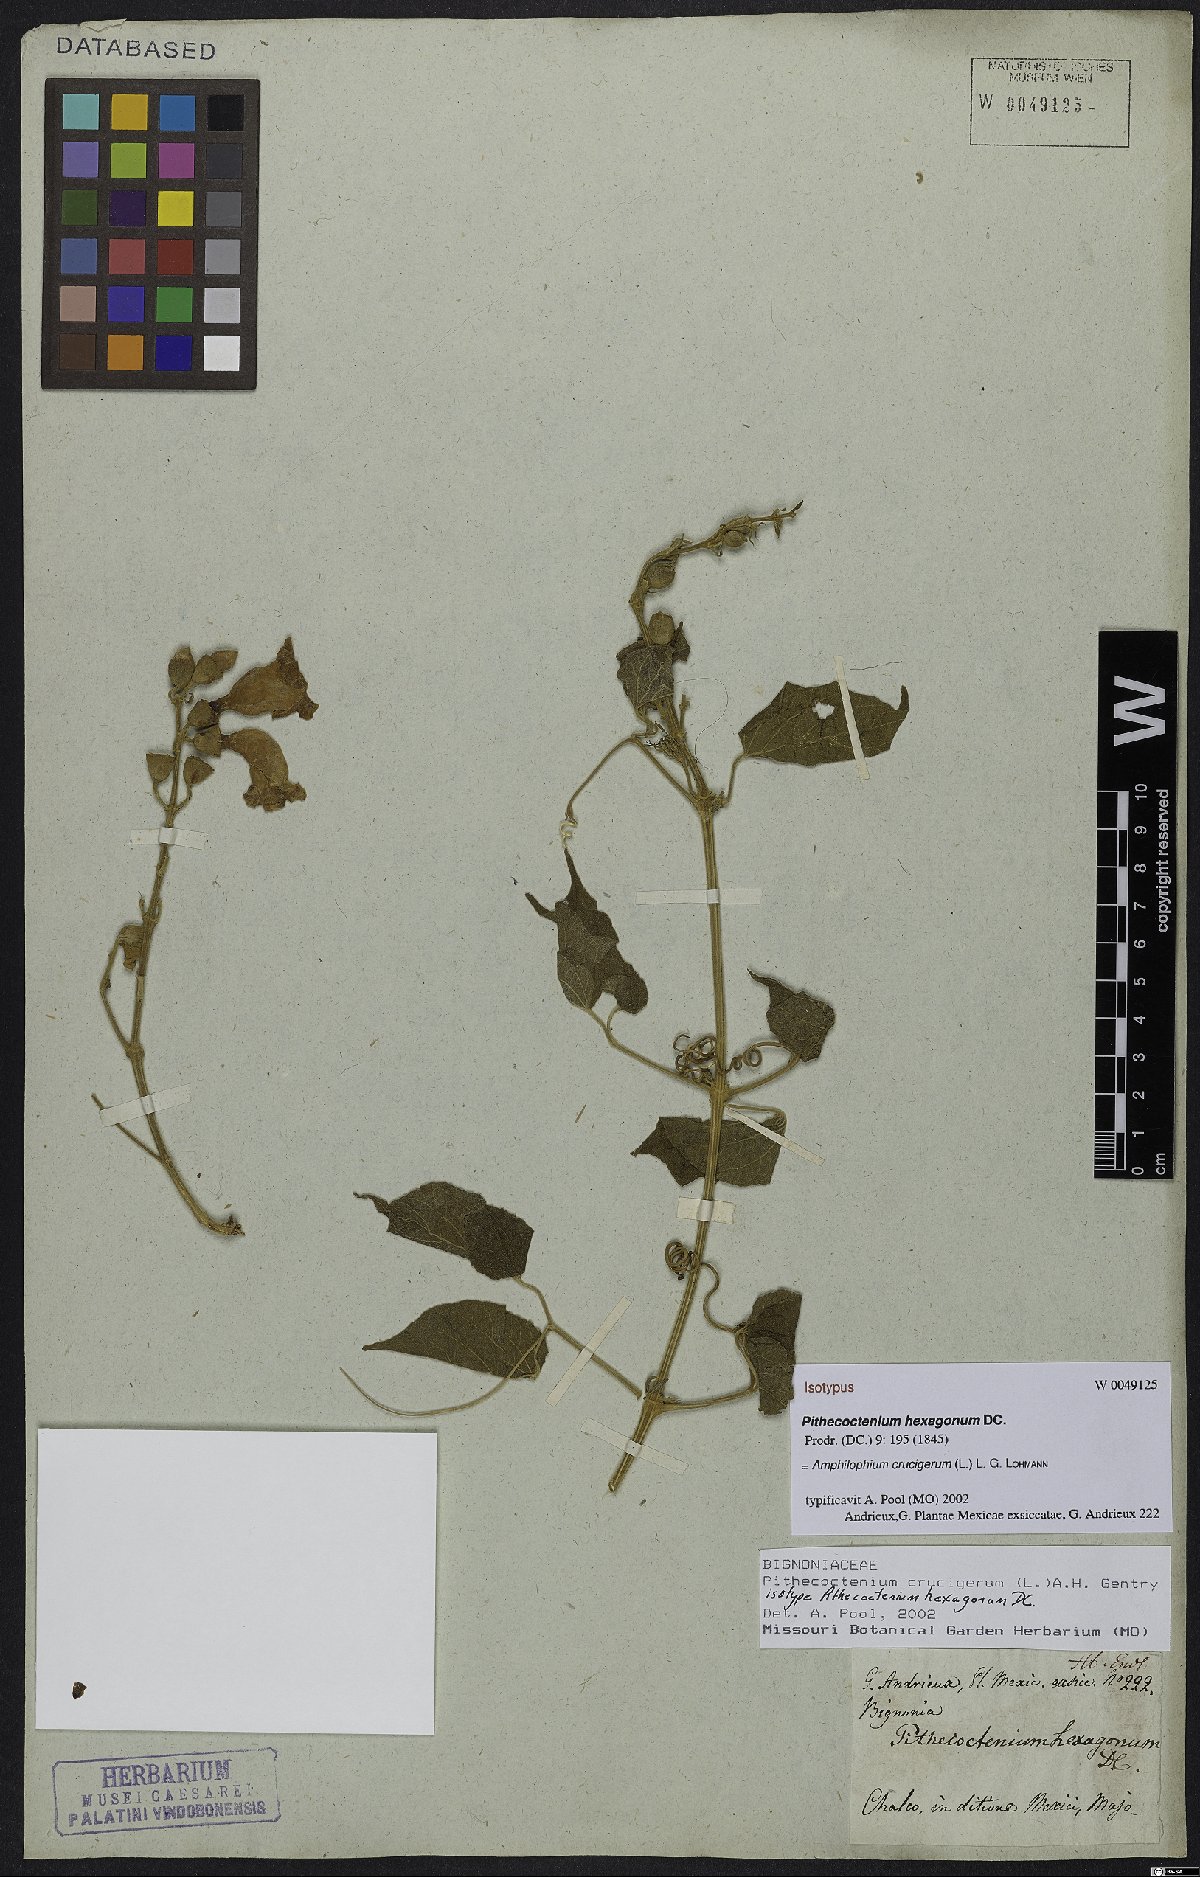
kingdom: Plantae
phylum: Tracheophyta
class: Magnoliopsida
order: Lamiales
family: Bignoniaceae
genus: Amphilophium
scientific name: Amphilophium crucigerum
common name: Monkey comb
